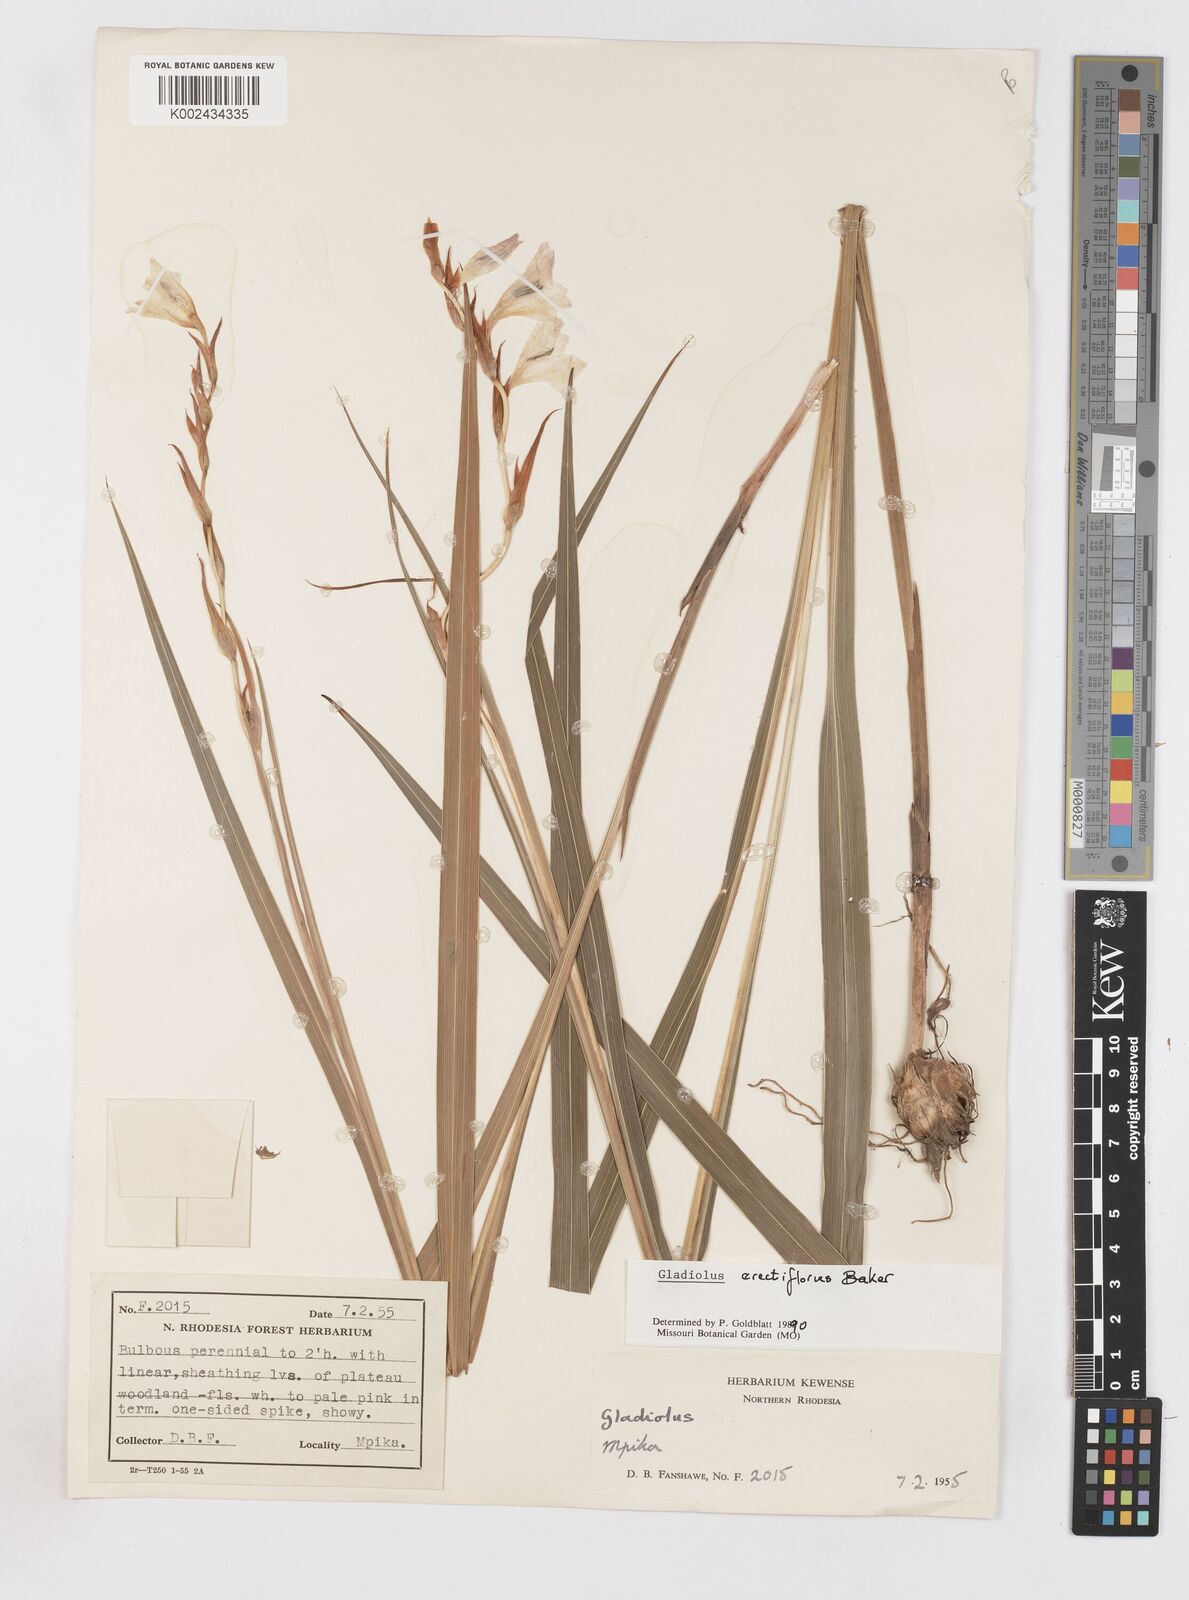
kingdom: Plantae
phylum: Tracheophyta
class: Liliopsida
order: Asparagales
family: Iridaceae
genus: Gladiolus
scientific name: Gladiolus erectiflorus
